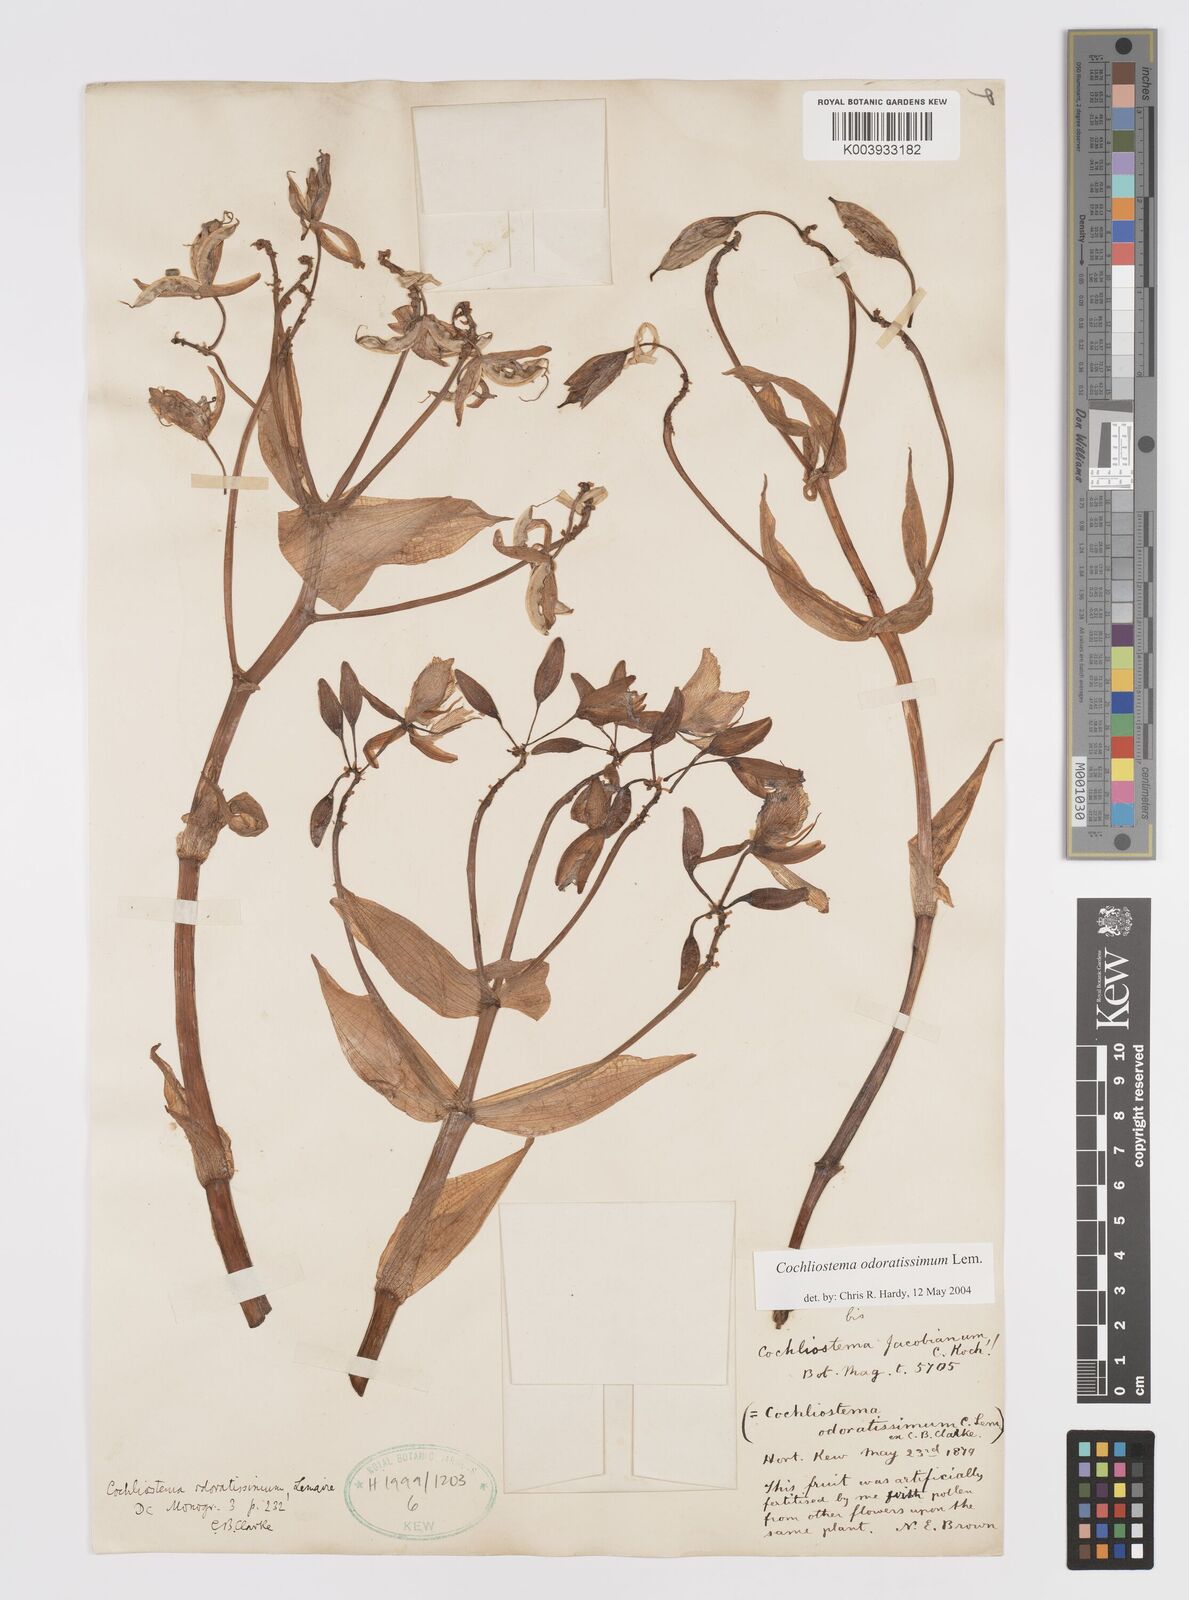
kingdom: Plantae
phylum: Tracheophyta
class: Liliopsida
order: Commelinales
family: Commelinaceae
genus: Cochliostema
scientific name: Cochliostema odoratissimum
